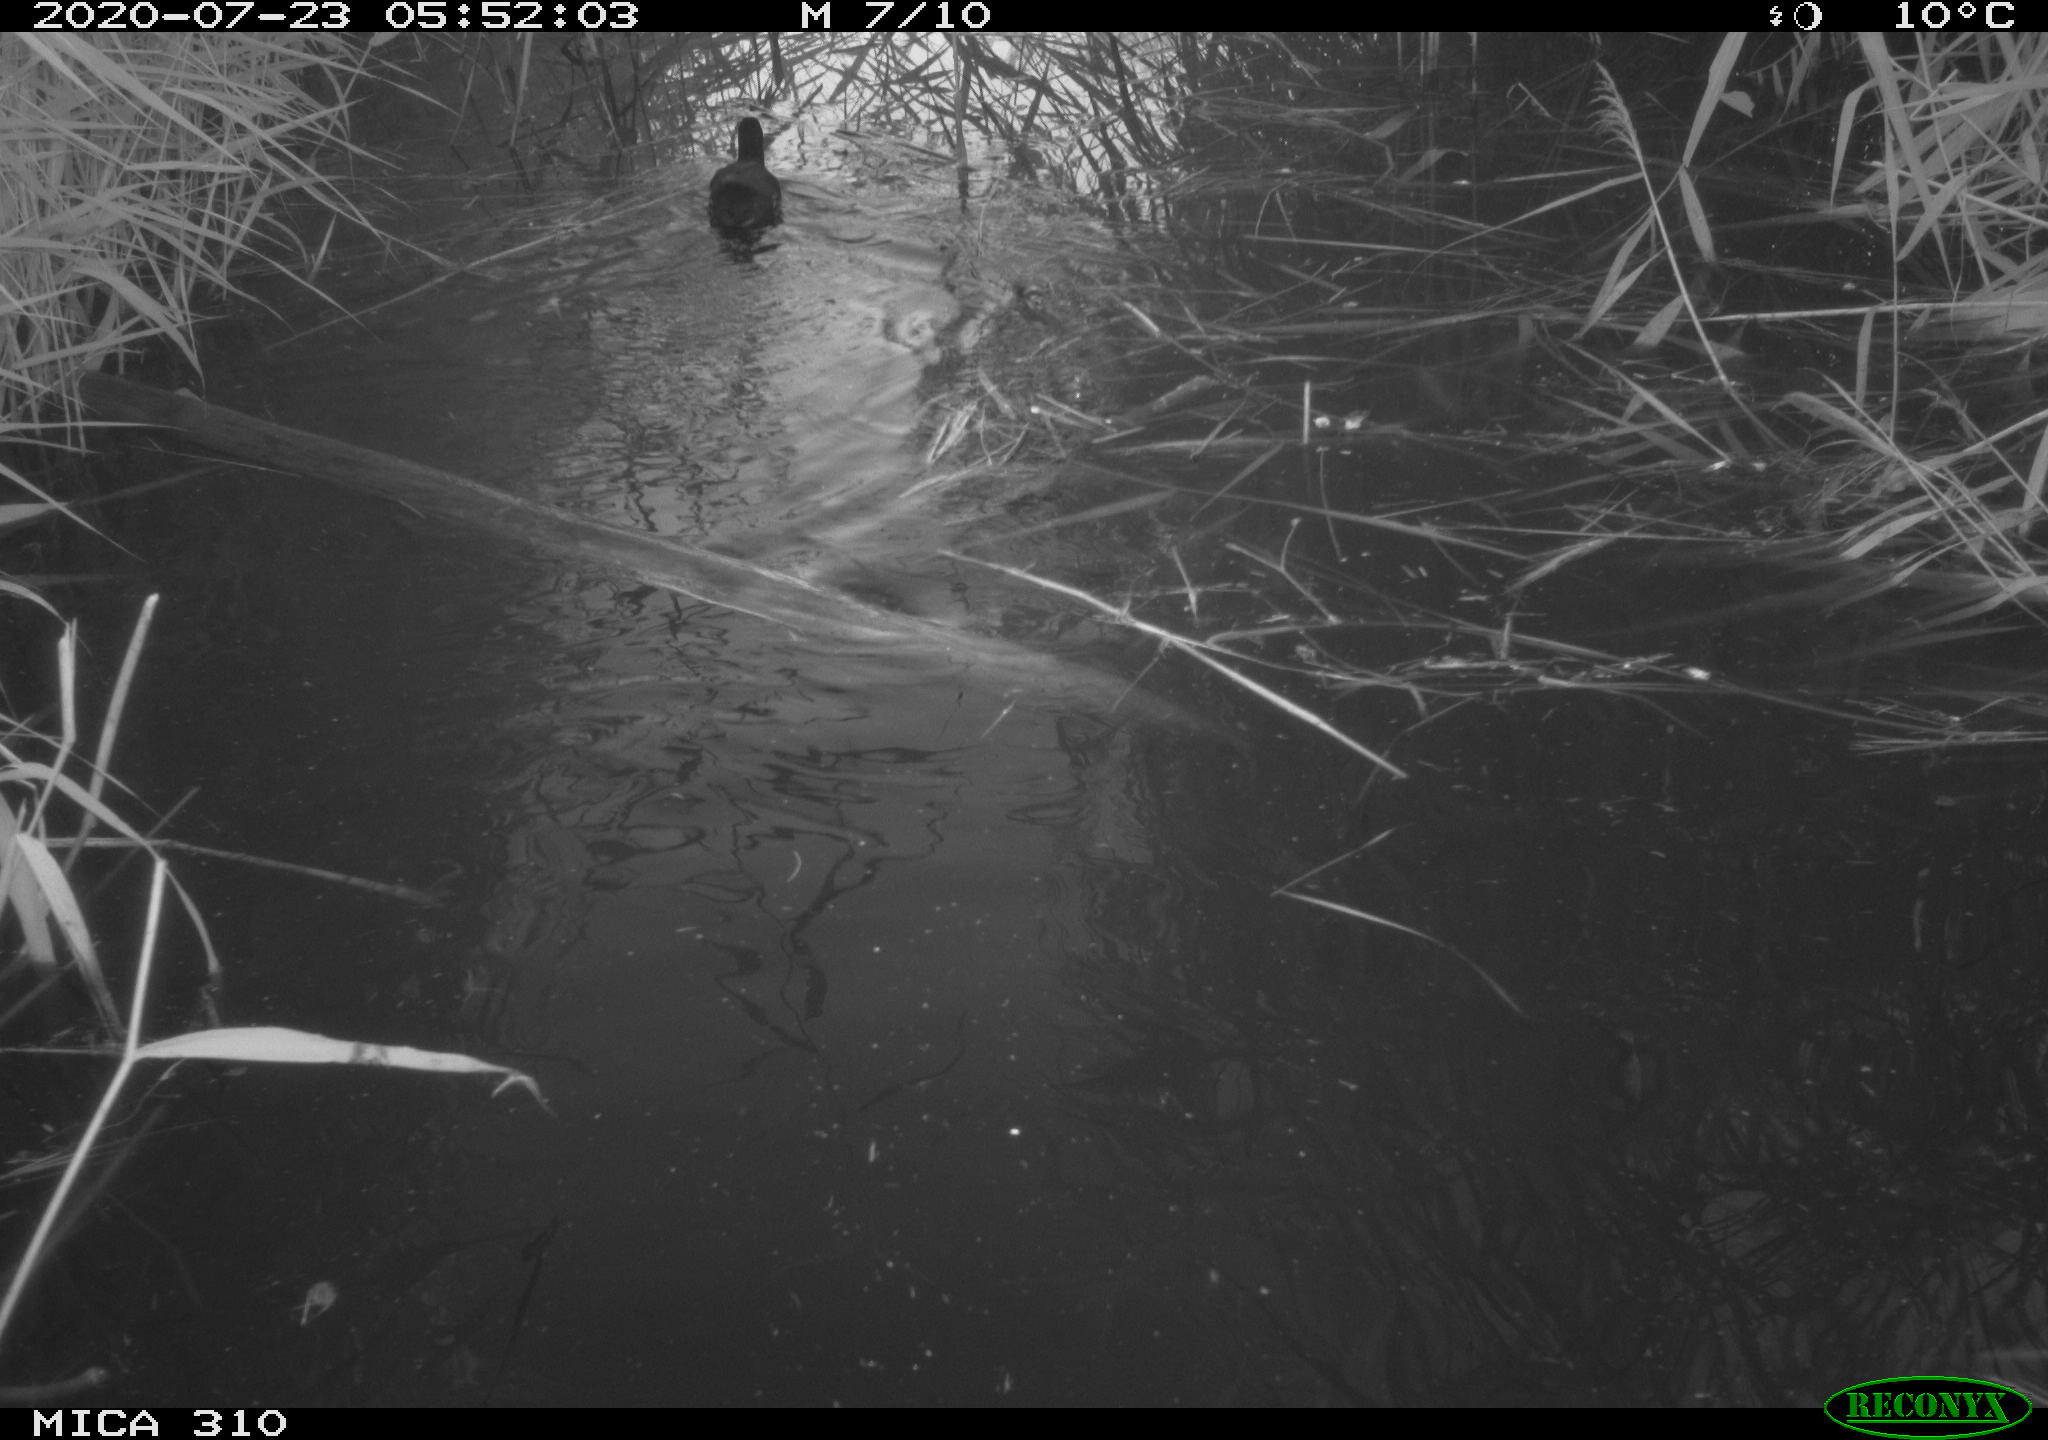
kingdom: Animalia
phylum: Chordata
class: Aves
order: Gruiformes
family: Rallidae
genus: Fulica
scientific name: Fulica atra
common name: Eurasian coot
